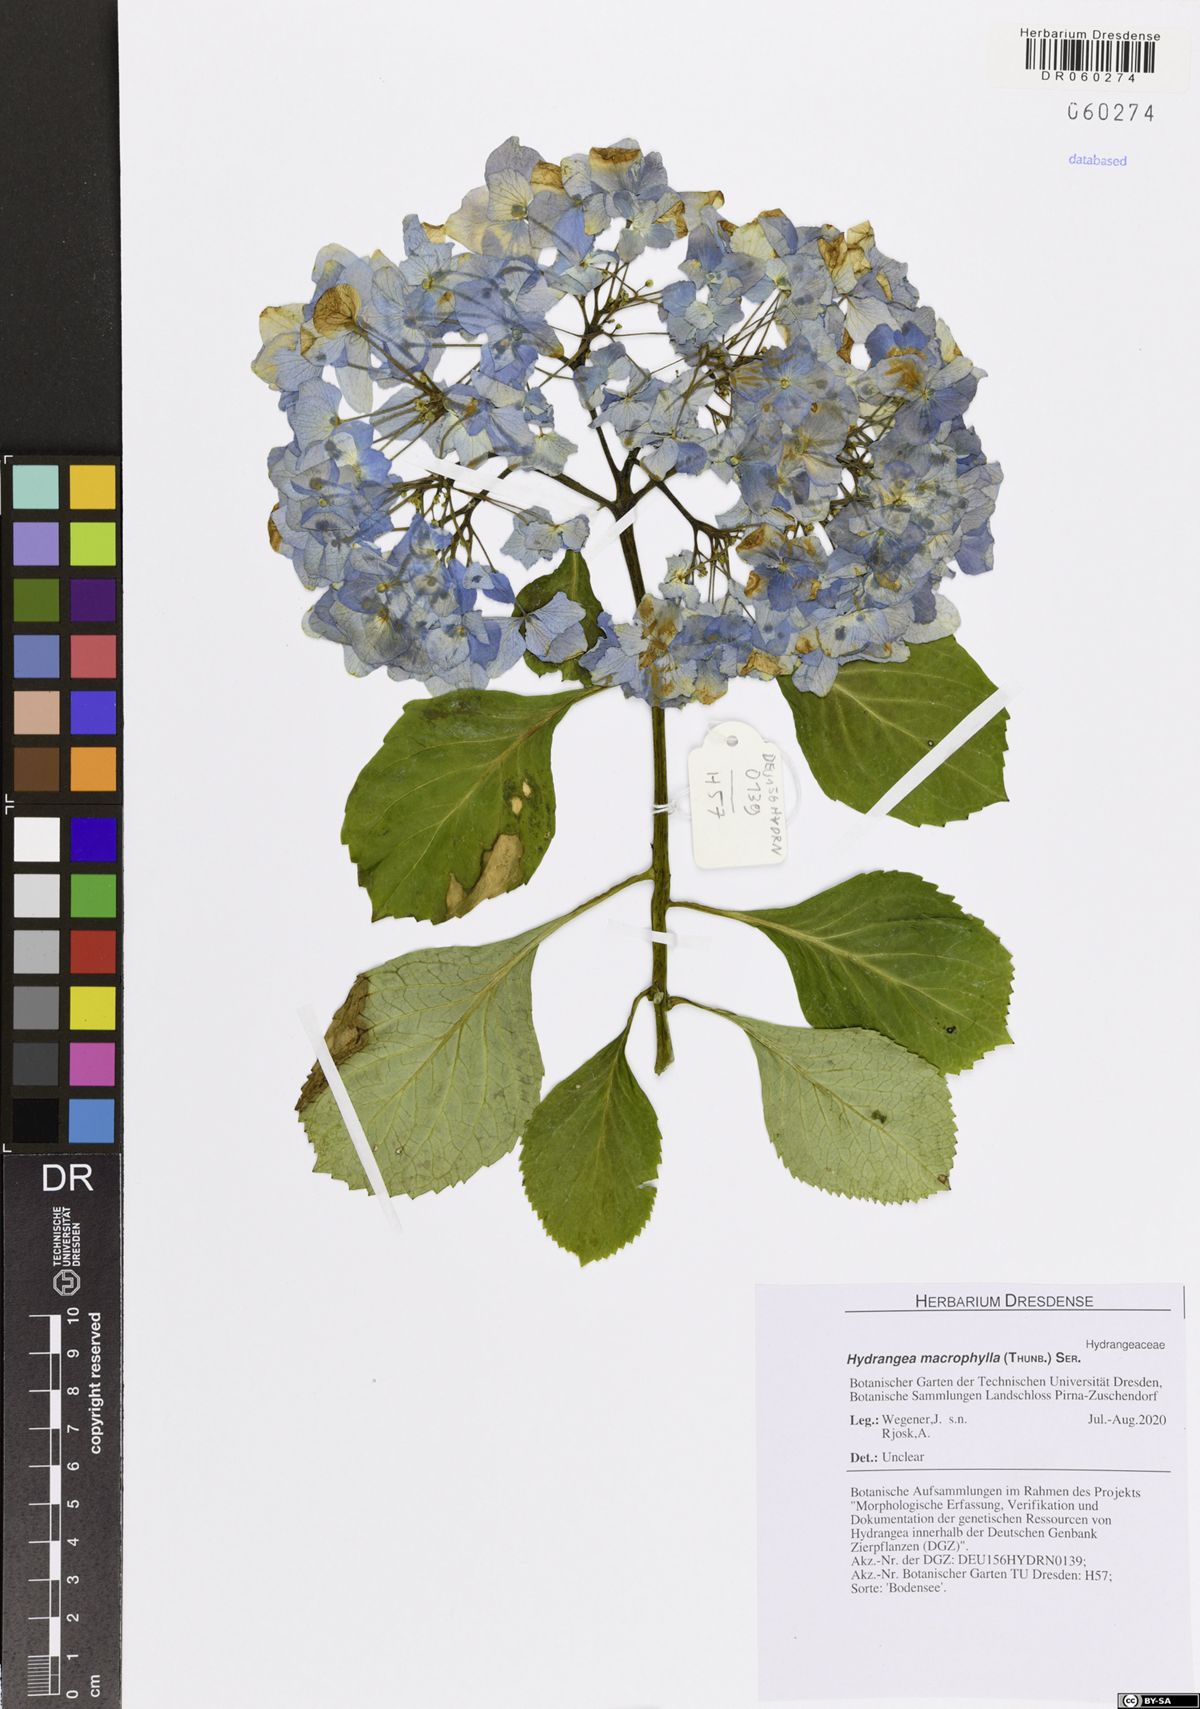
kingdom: Plantae
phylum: Tracheophyta
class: Magnoliopsida
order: Cornales
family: Hydrangeaceae
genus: Hydrangea
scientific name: Hydrangea macrophylla
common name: Hydrangea
